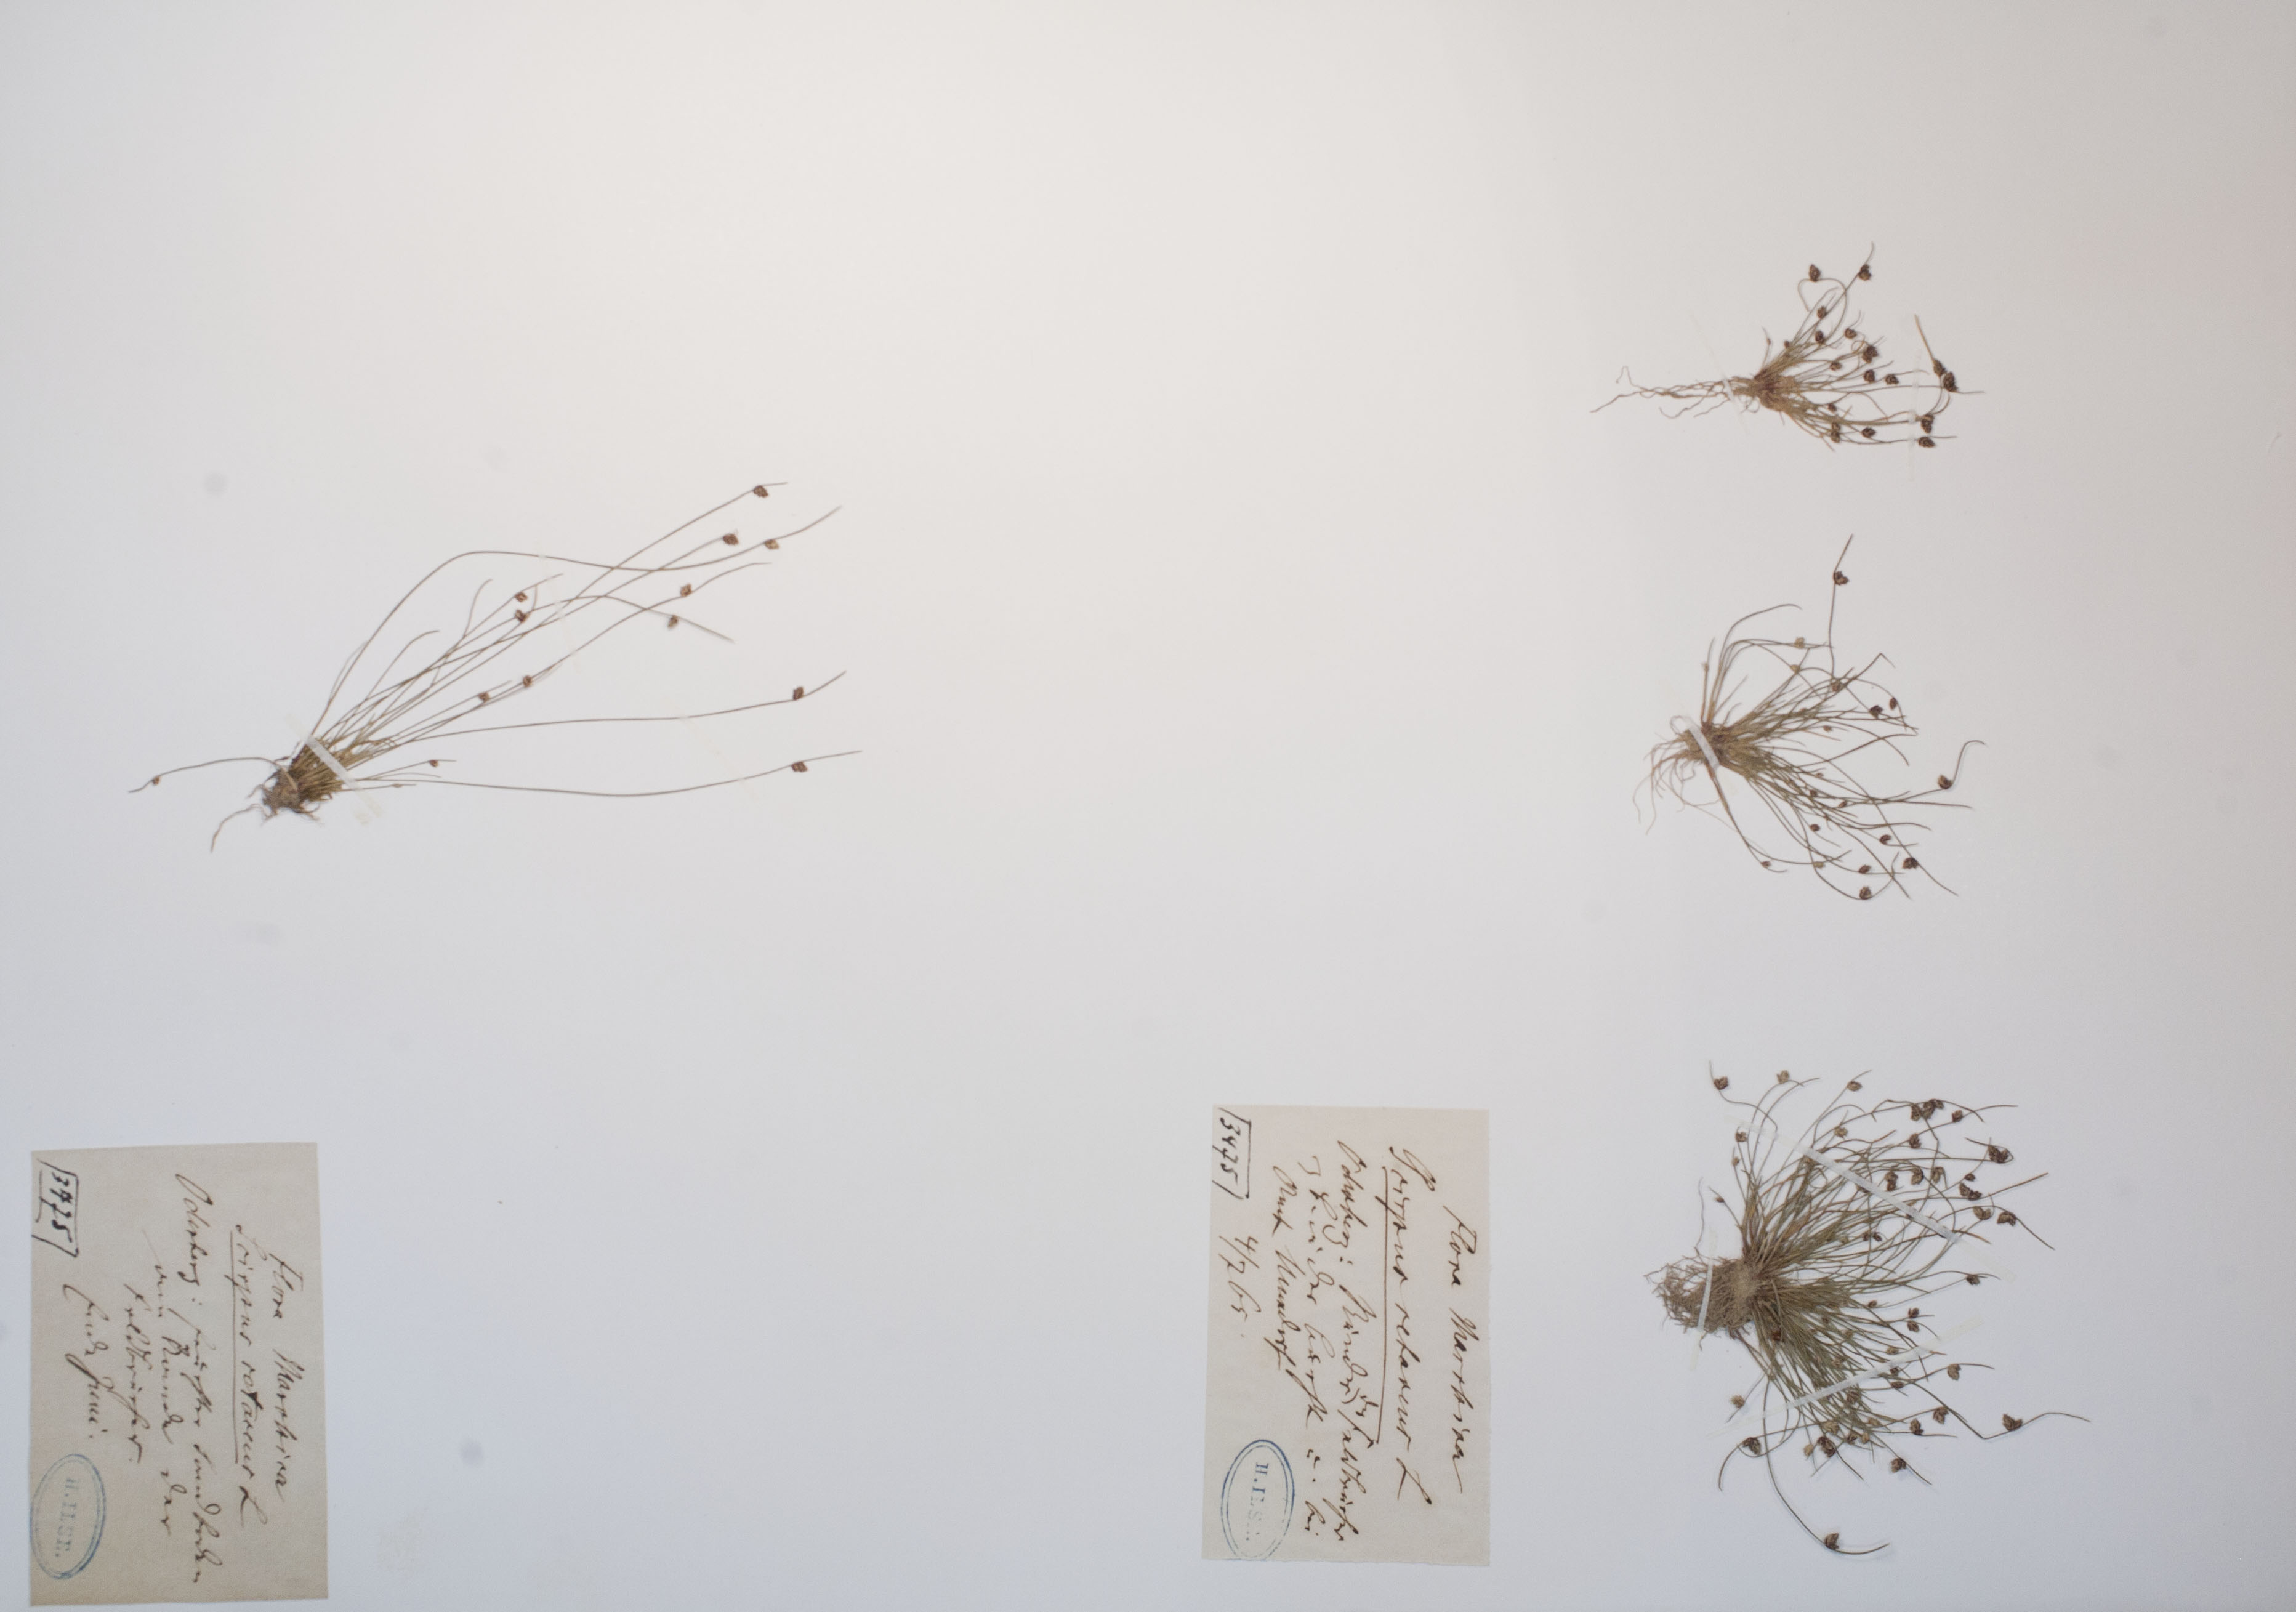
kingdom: Plantae
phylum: Tracheophyta
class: Liliopsida
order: Poales
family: Cyperaceae
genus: Isolepis
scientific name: Isolepis setacea
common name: Bristle club-rush
